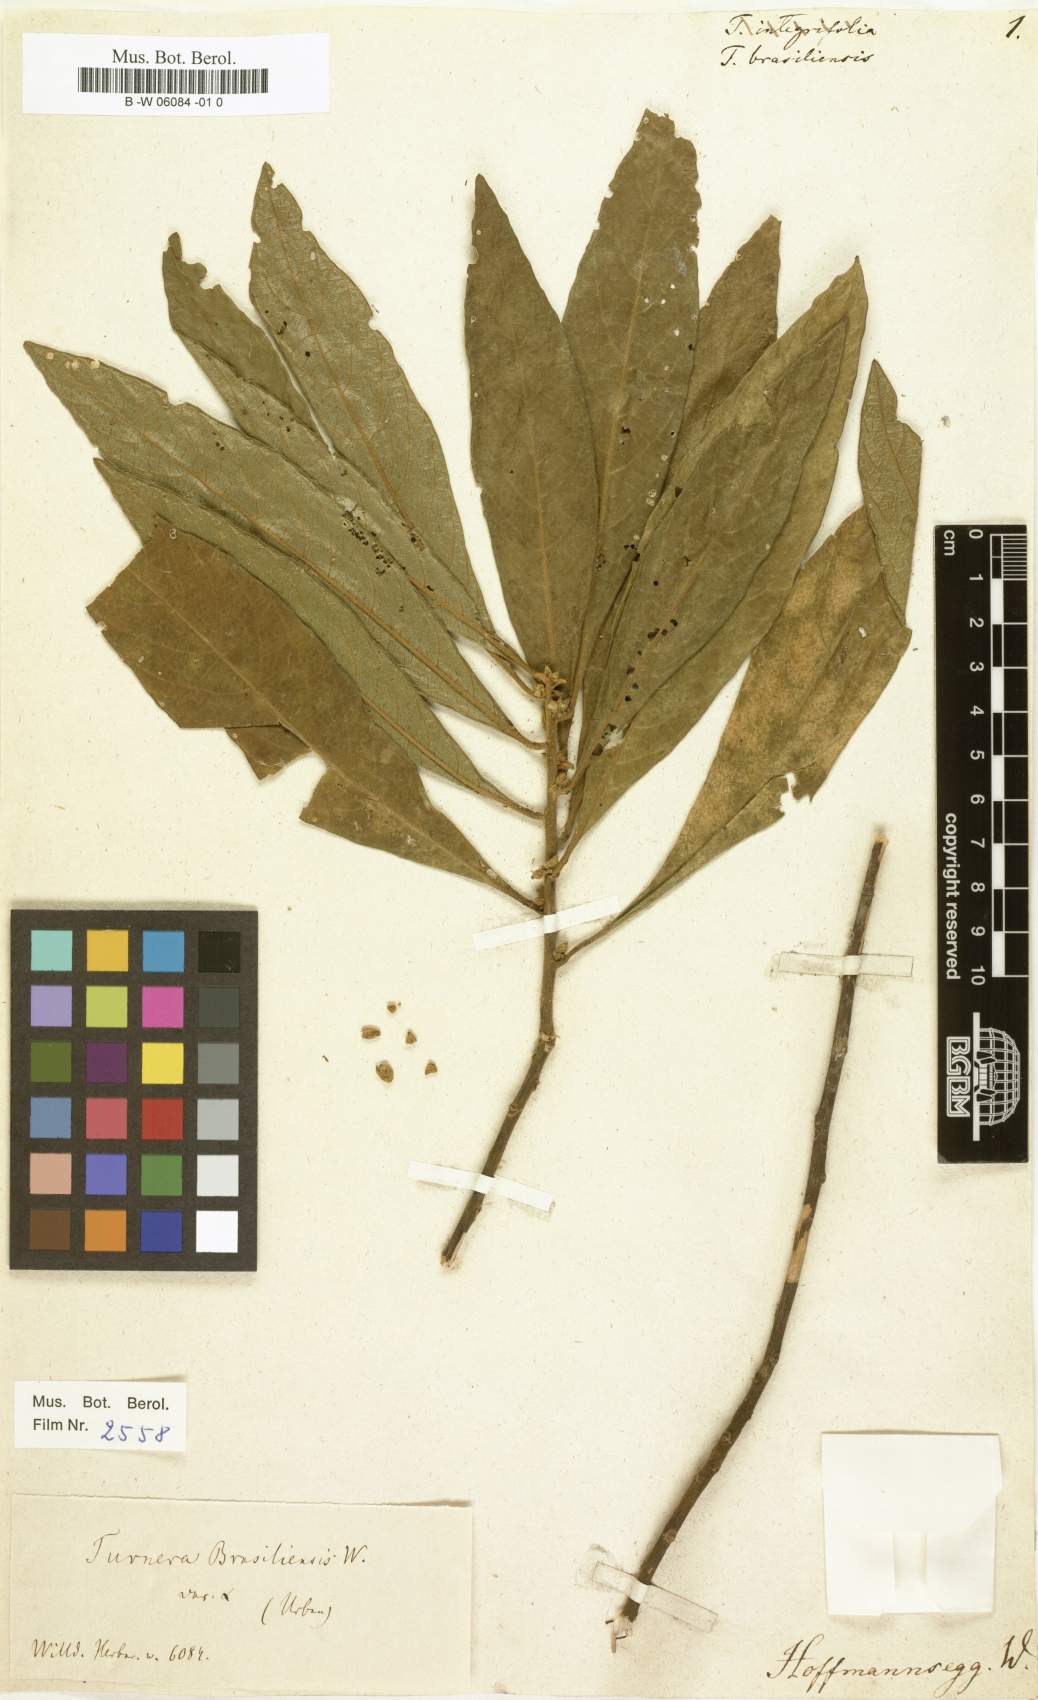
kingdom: Plantae
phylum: Tracheophyta
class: Magnoliopsida
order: Malpighiales
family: Turneraceae
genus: Turnera
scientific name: Turnera brasiliensis
